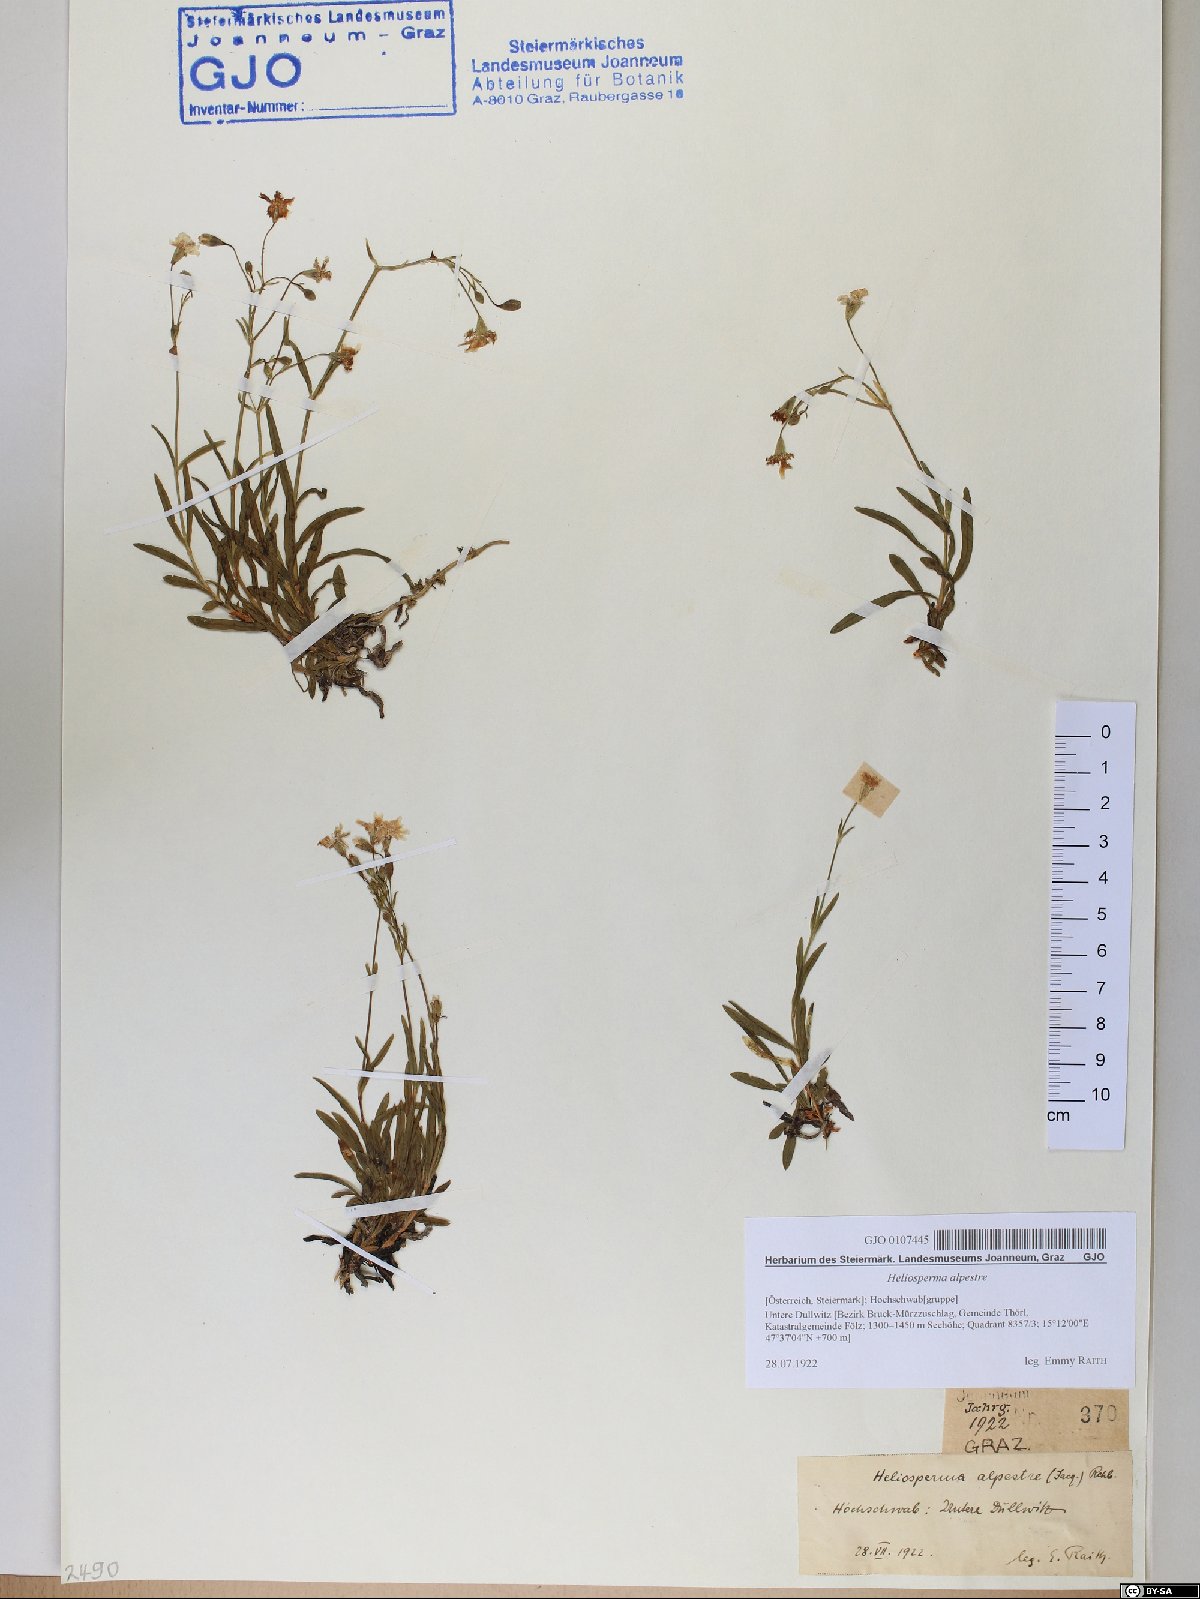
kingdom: Plantae
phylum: Tracheophyta
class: Magnoliopsida
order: Caryophyllales
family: Caryophyllaceae
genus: Heliosperma
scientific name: Heliosperma alpestre
